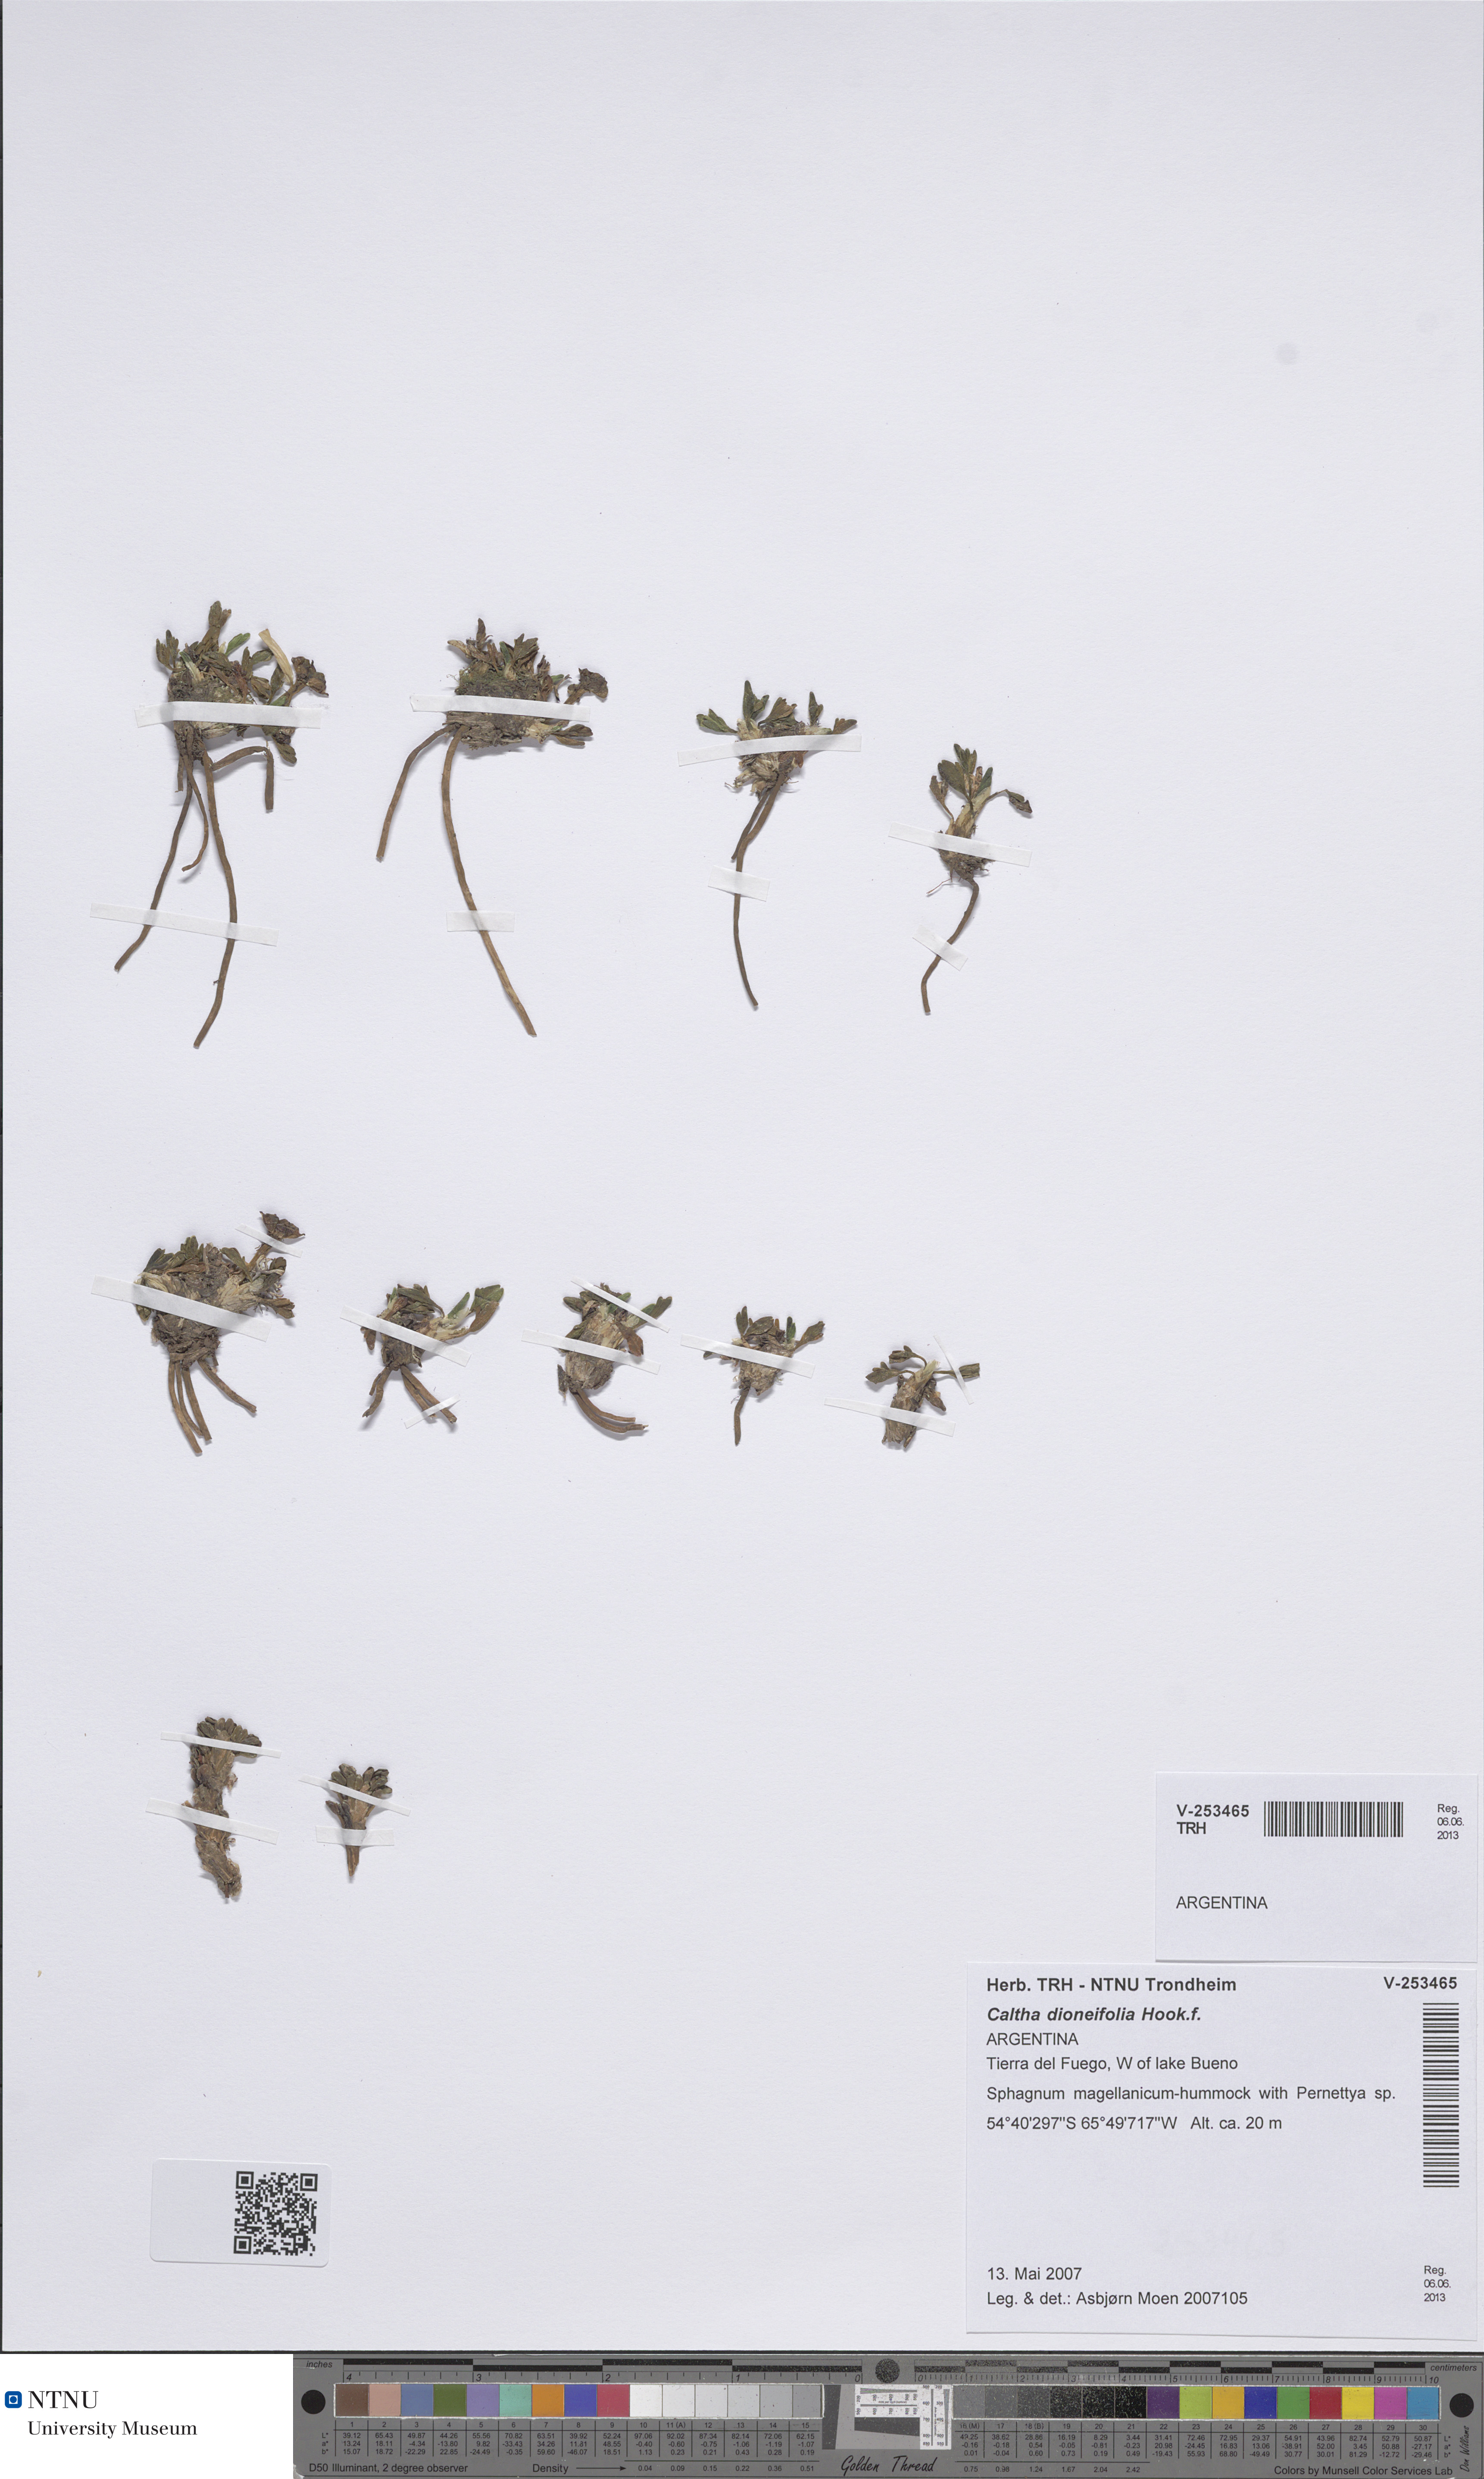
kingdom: Plantae
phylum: Tracheophyta
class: Magnoliopsida
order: Ranunculales
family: Ranunculaceae
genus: Caltha
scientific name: Caltha Psychrophila dioneifolia
